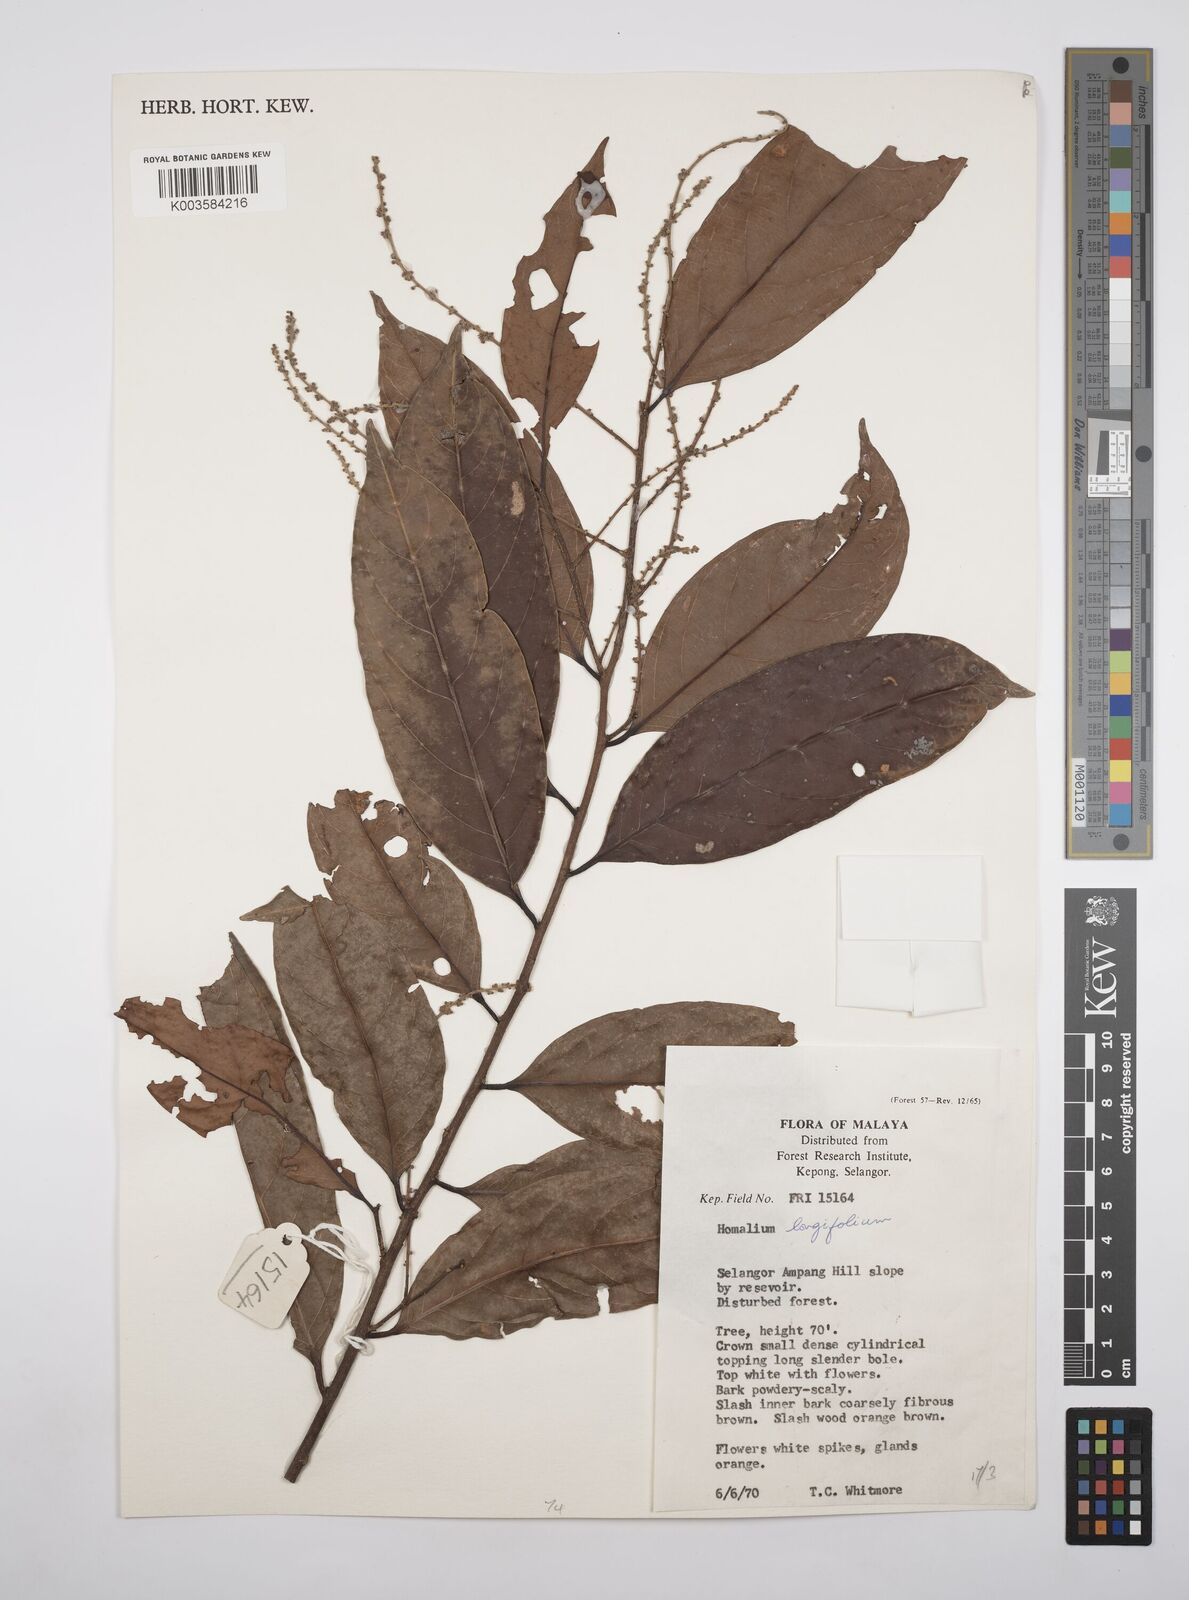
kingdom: Plantae
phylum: Tracheophyta
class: Magnoliopsida
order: Malpighiales
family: Salicaceae
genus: Homalium
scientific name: Homalium longifolium
